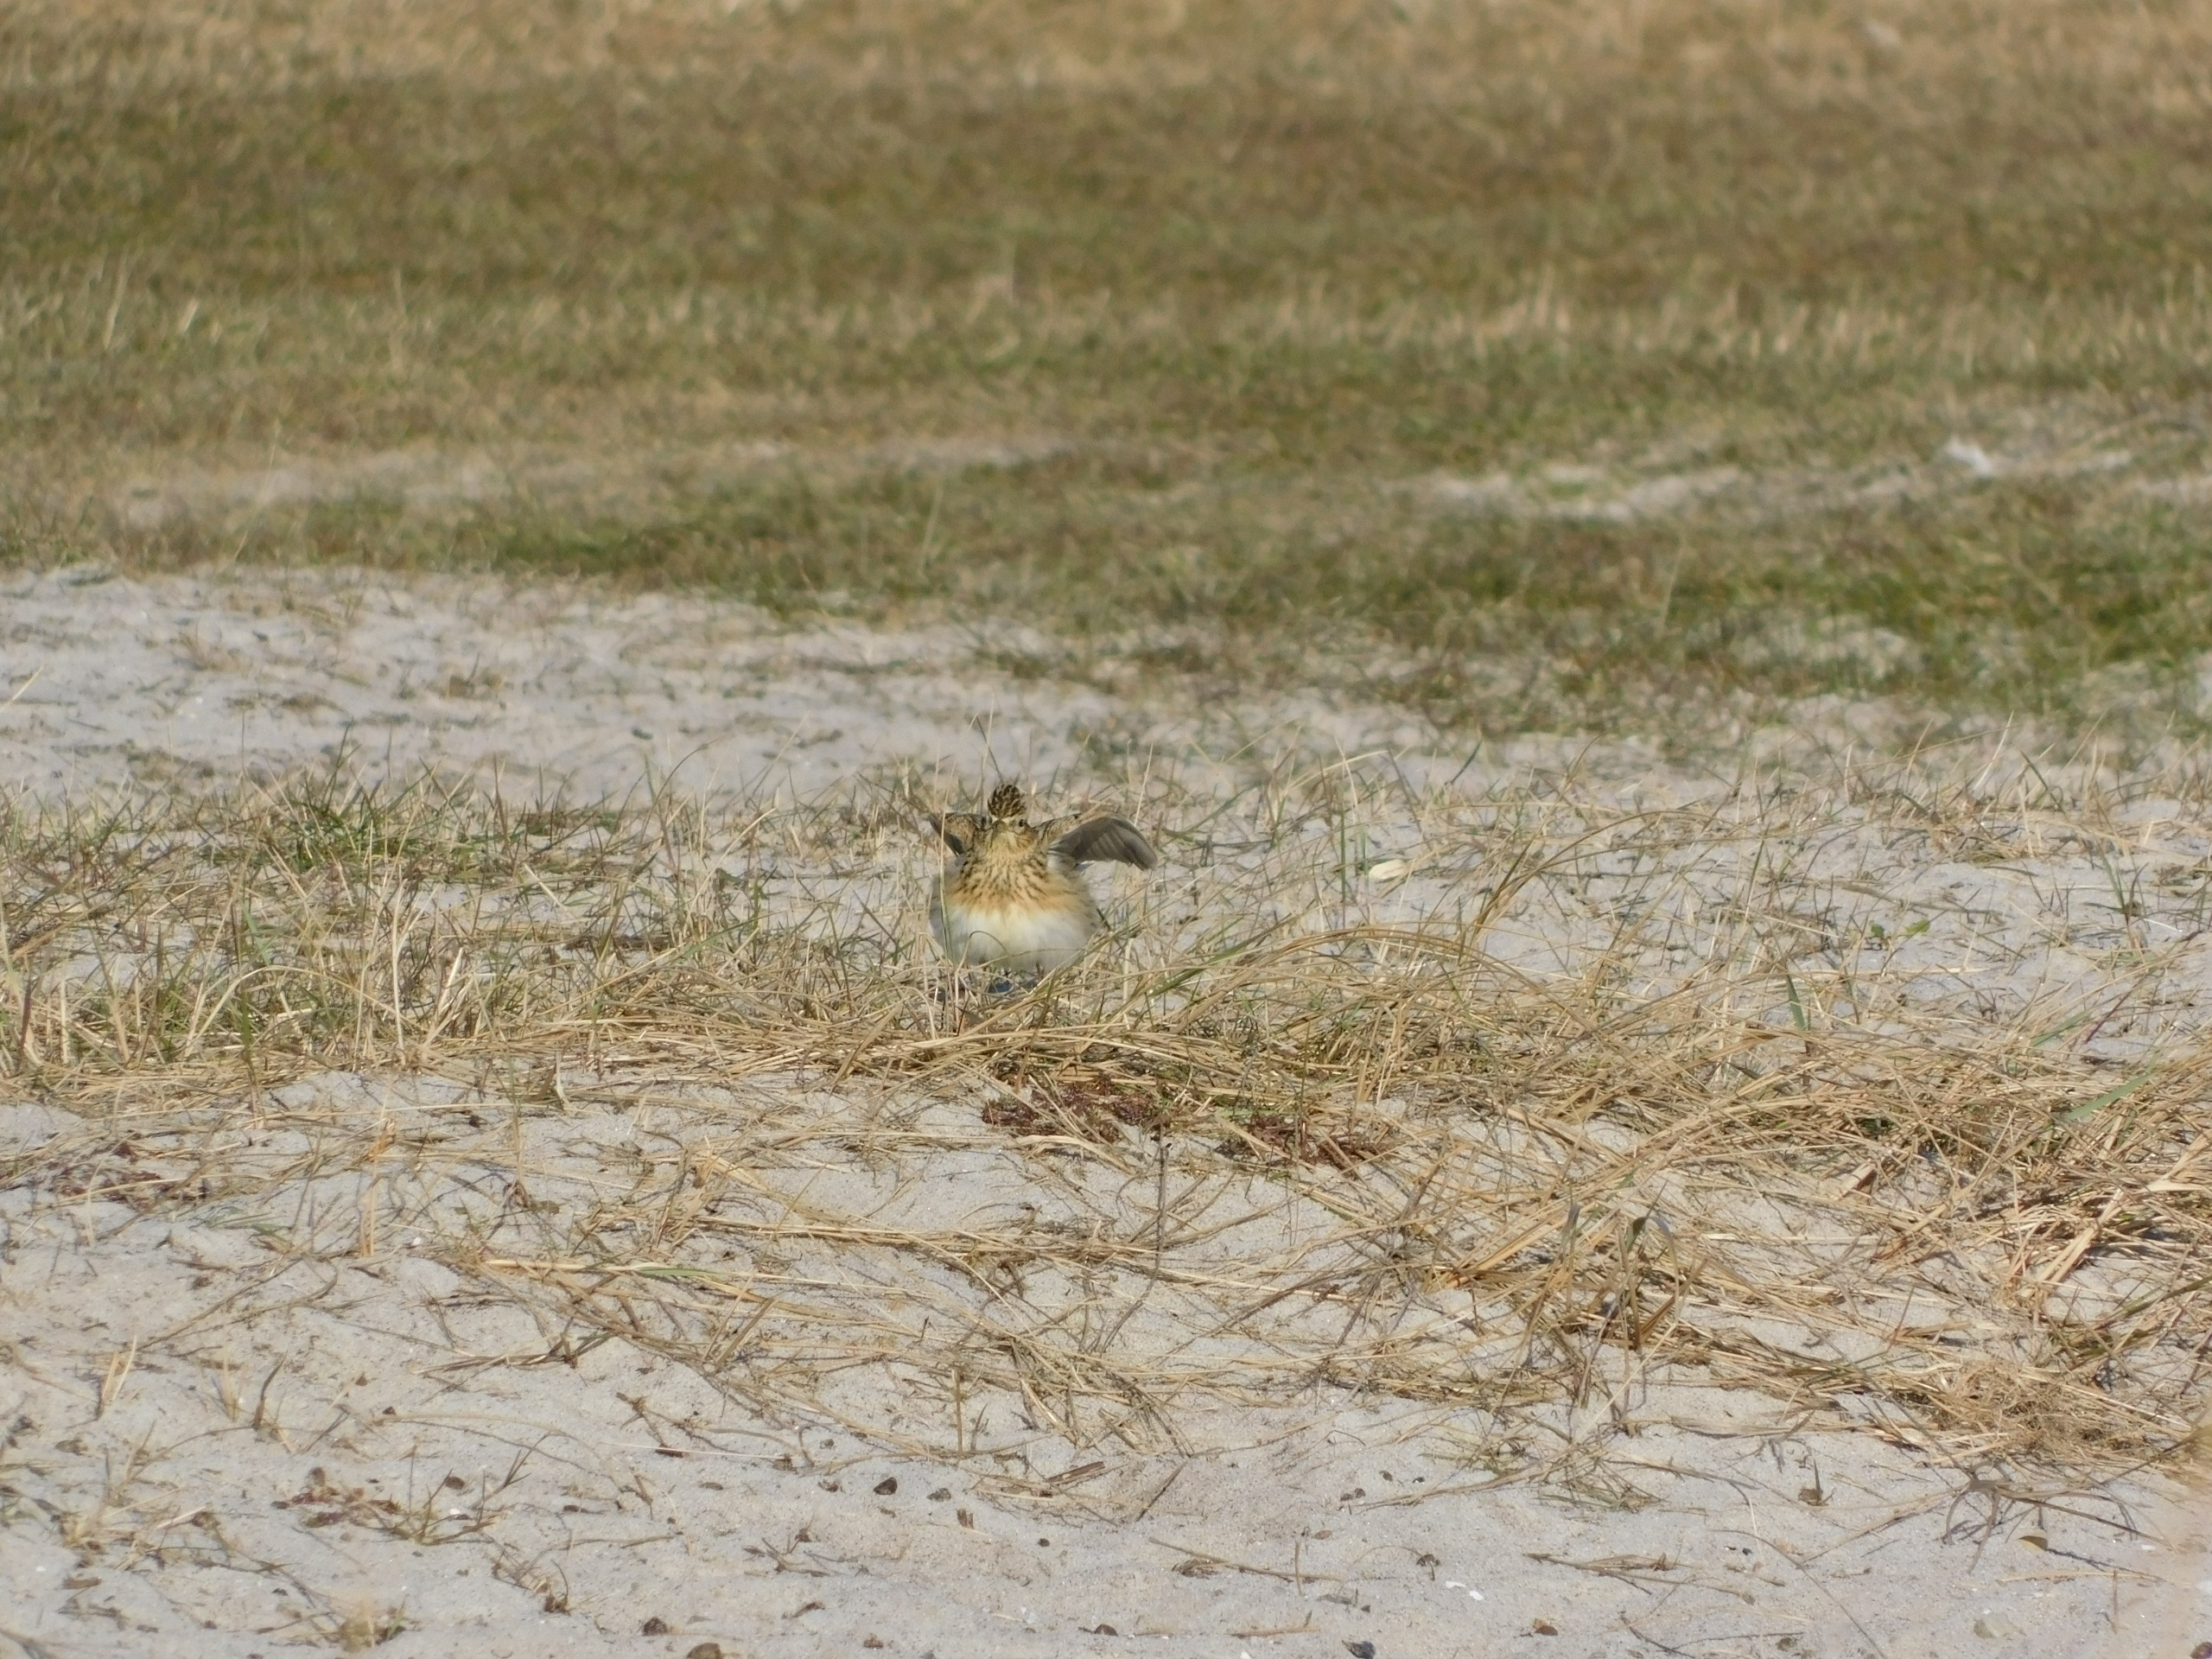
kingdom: Animalia
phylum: Chordata
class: Aves
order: Passeriformes
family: Alaudidae
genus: Alauda
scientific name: Alauda arvensis
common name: Sanglærke
